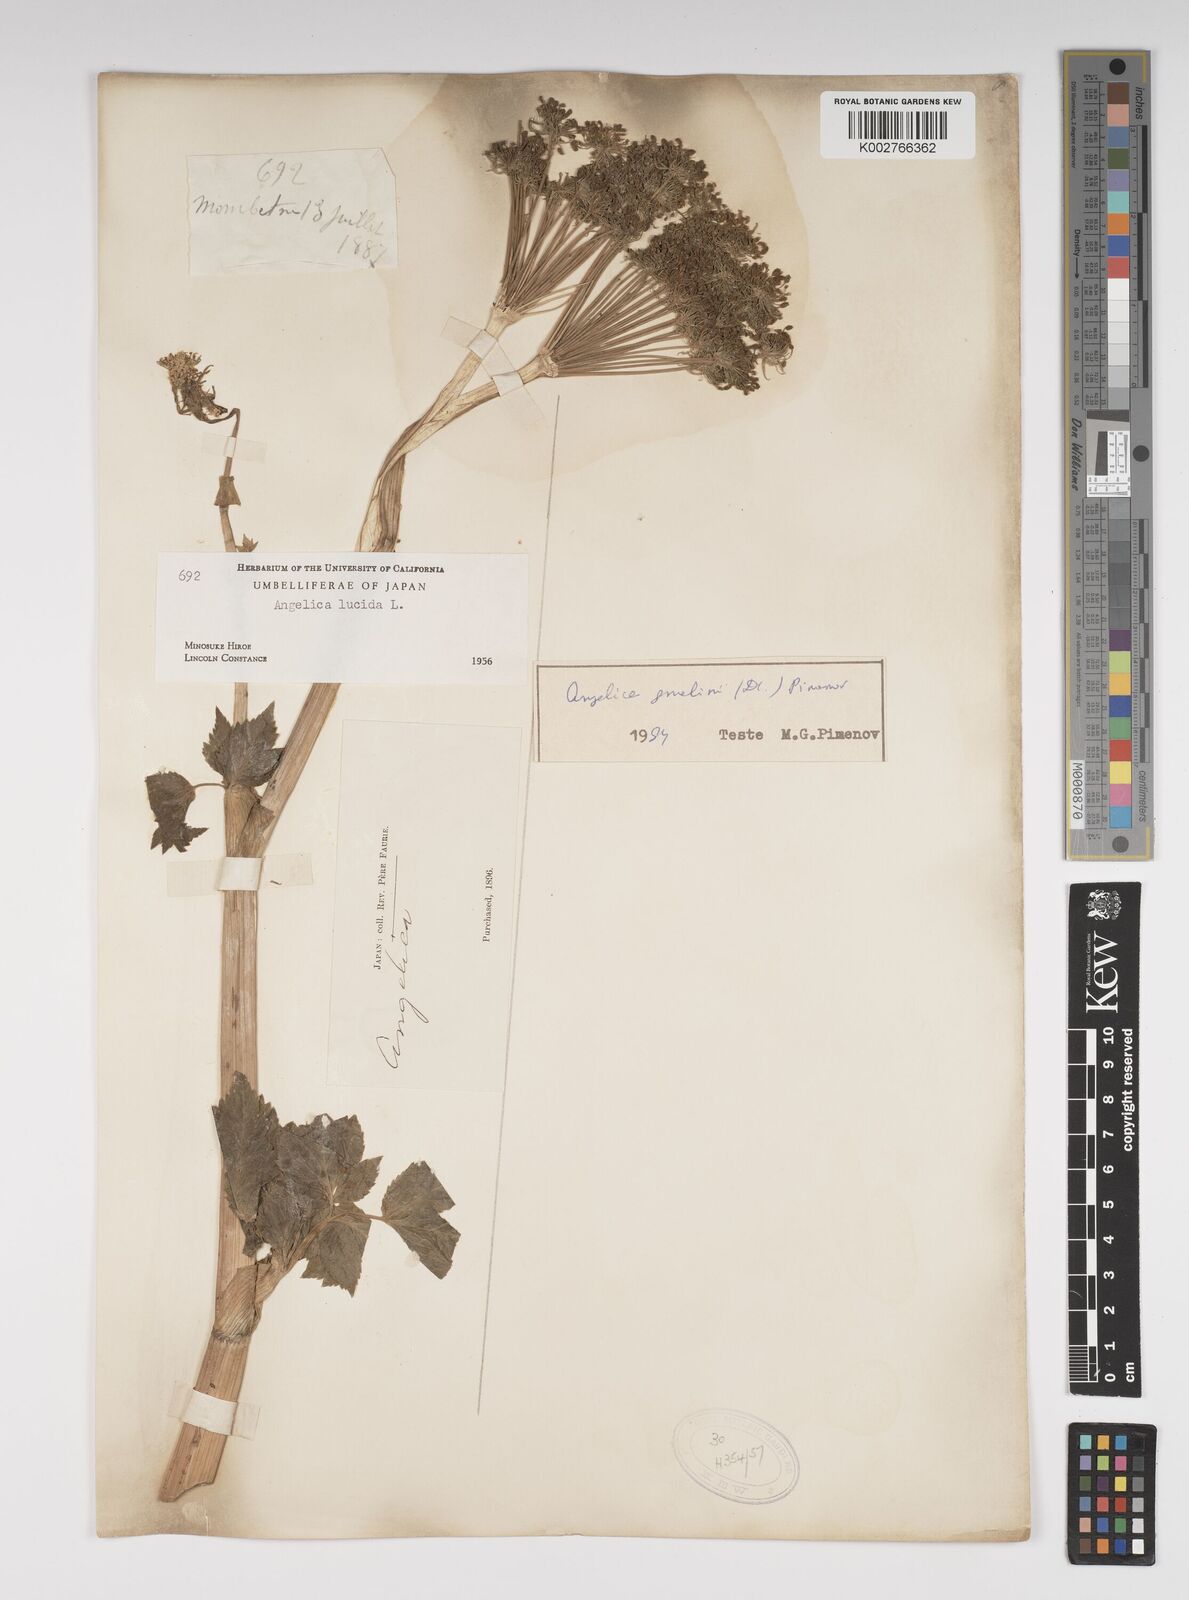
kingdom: Plantae
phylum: Tracheophyta
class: Magnoliopsida
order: Apiales
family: Apiaceae
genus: Angelica
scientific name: Angelica lucida
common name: Seabeach angelica
